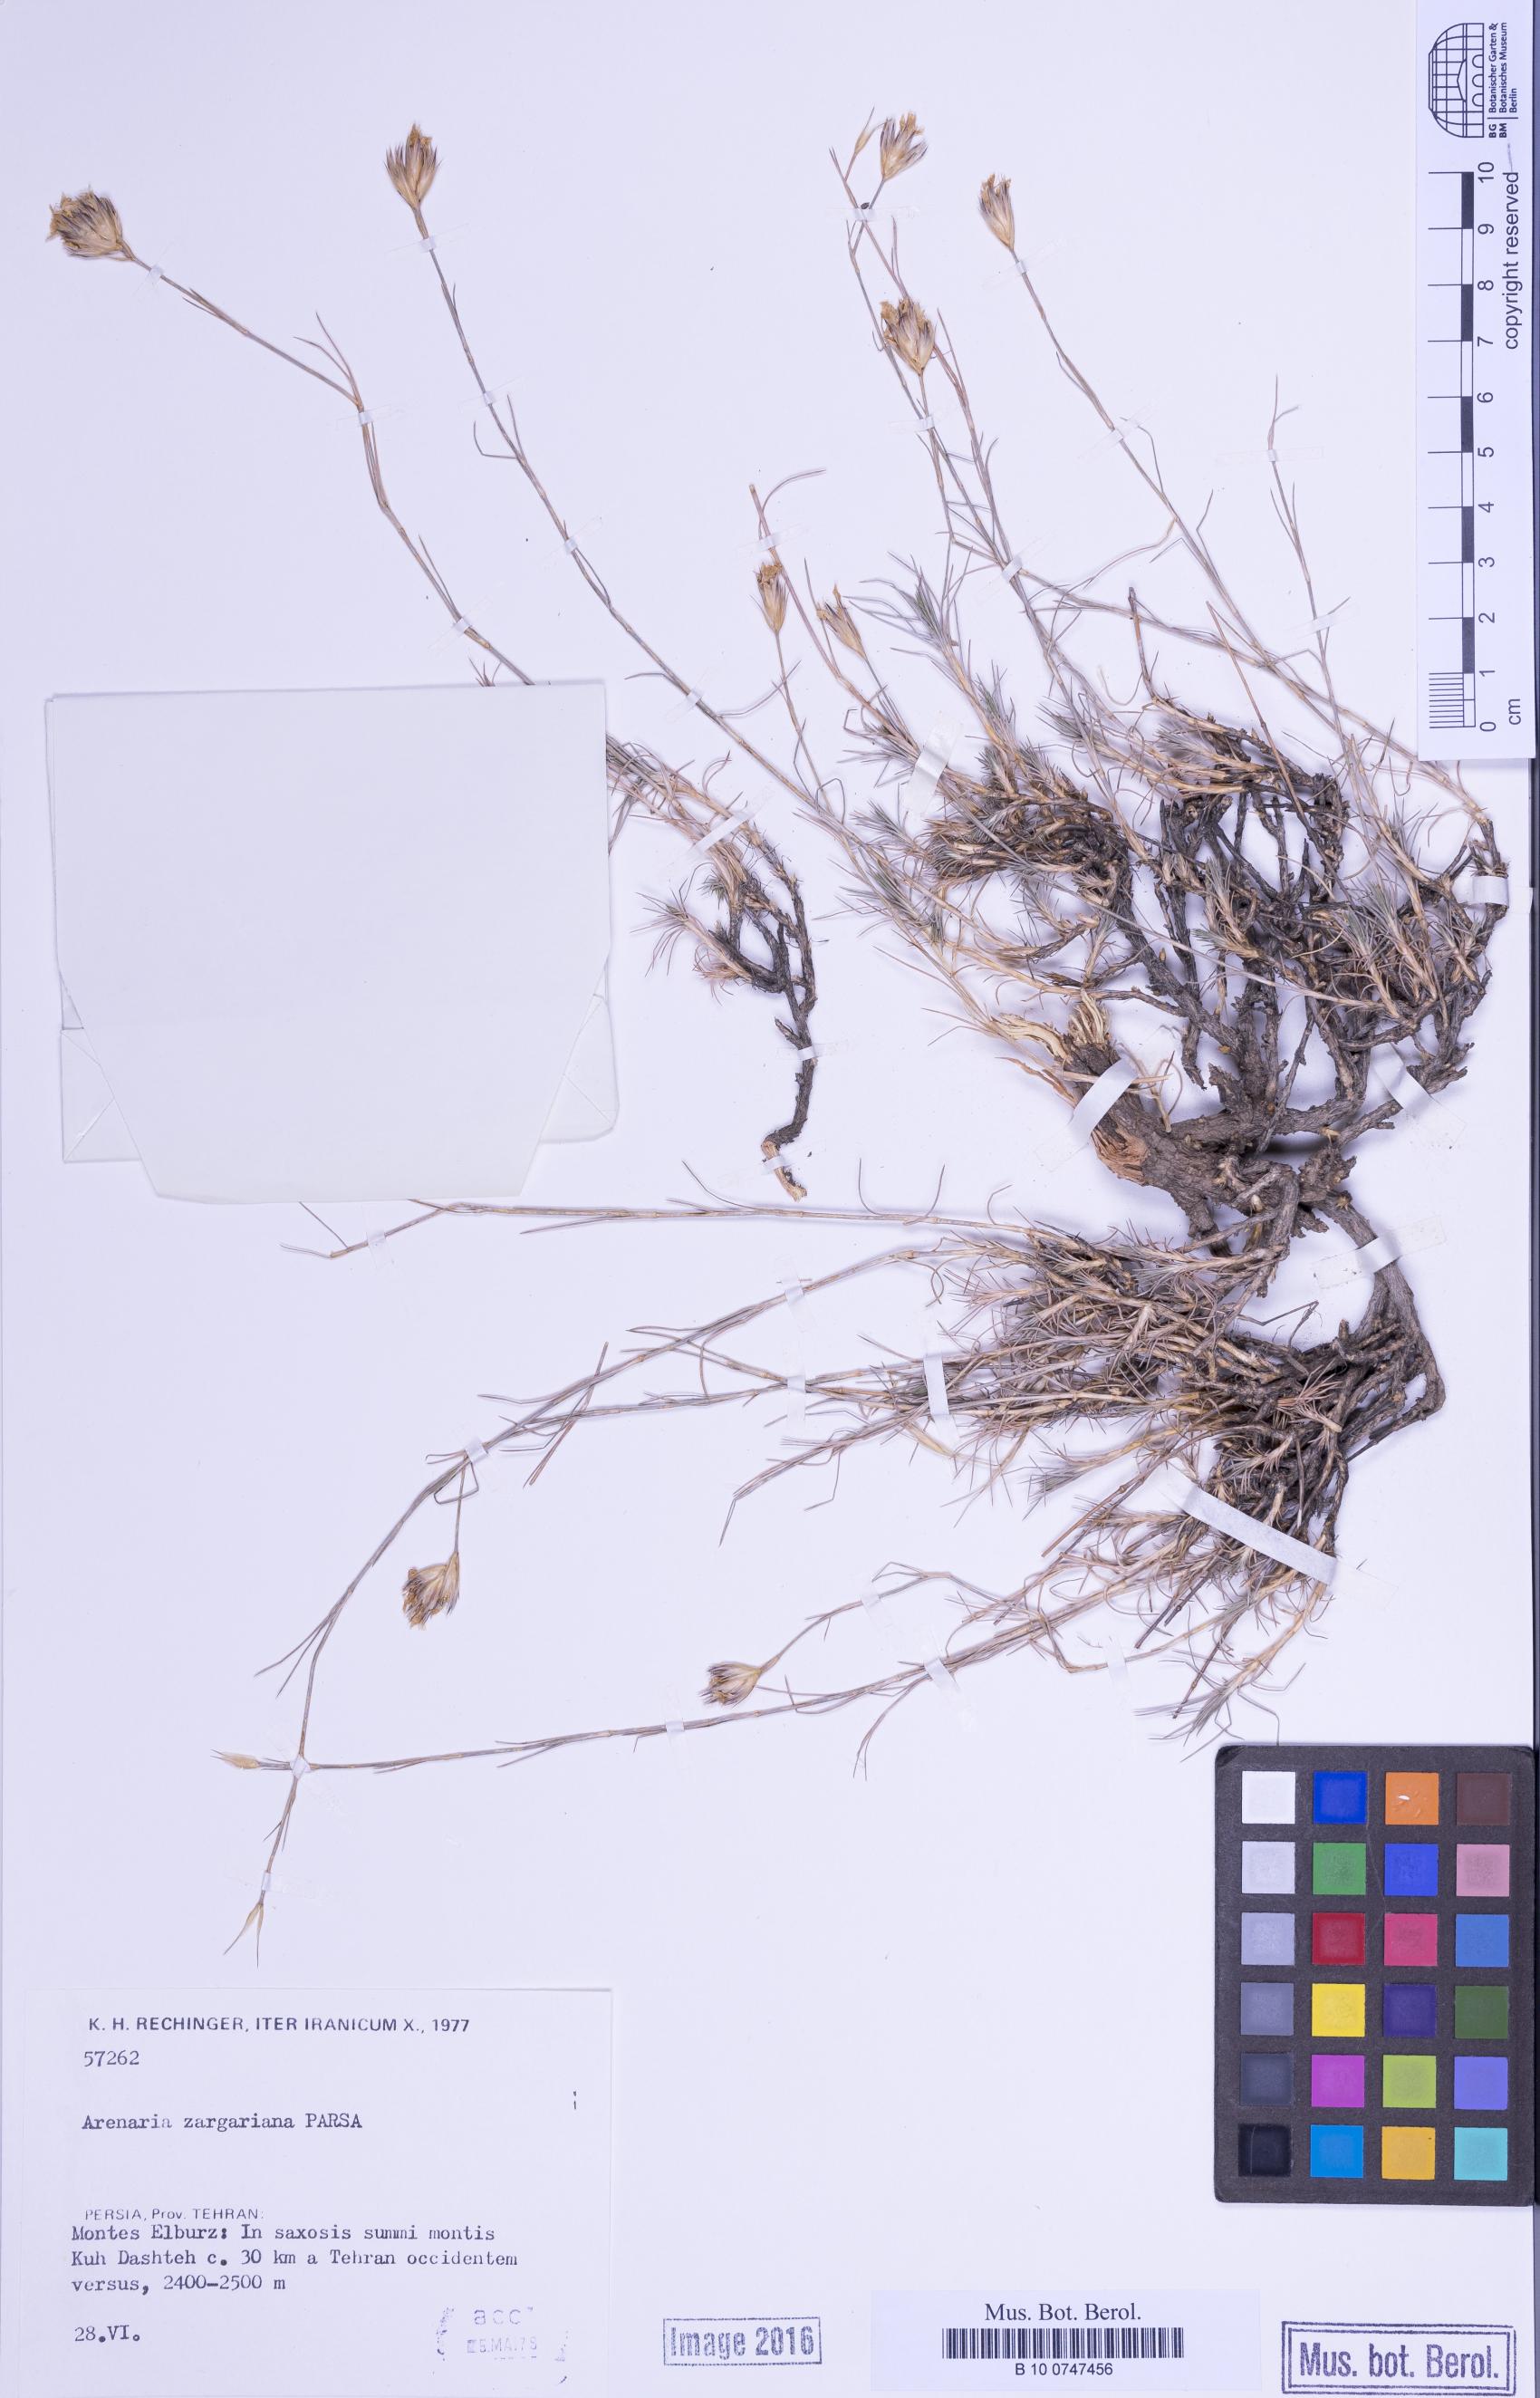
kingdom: Plantae
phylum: Tracheophyta
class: Magnoliopsida
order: Caryophyllales
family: Caryophyllaceae
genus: Eremogone
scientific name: Eremogone zargariana
